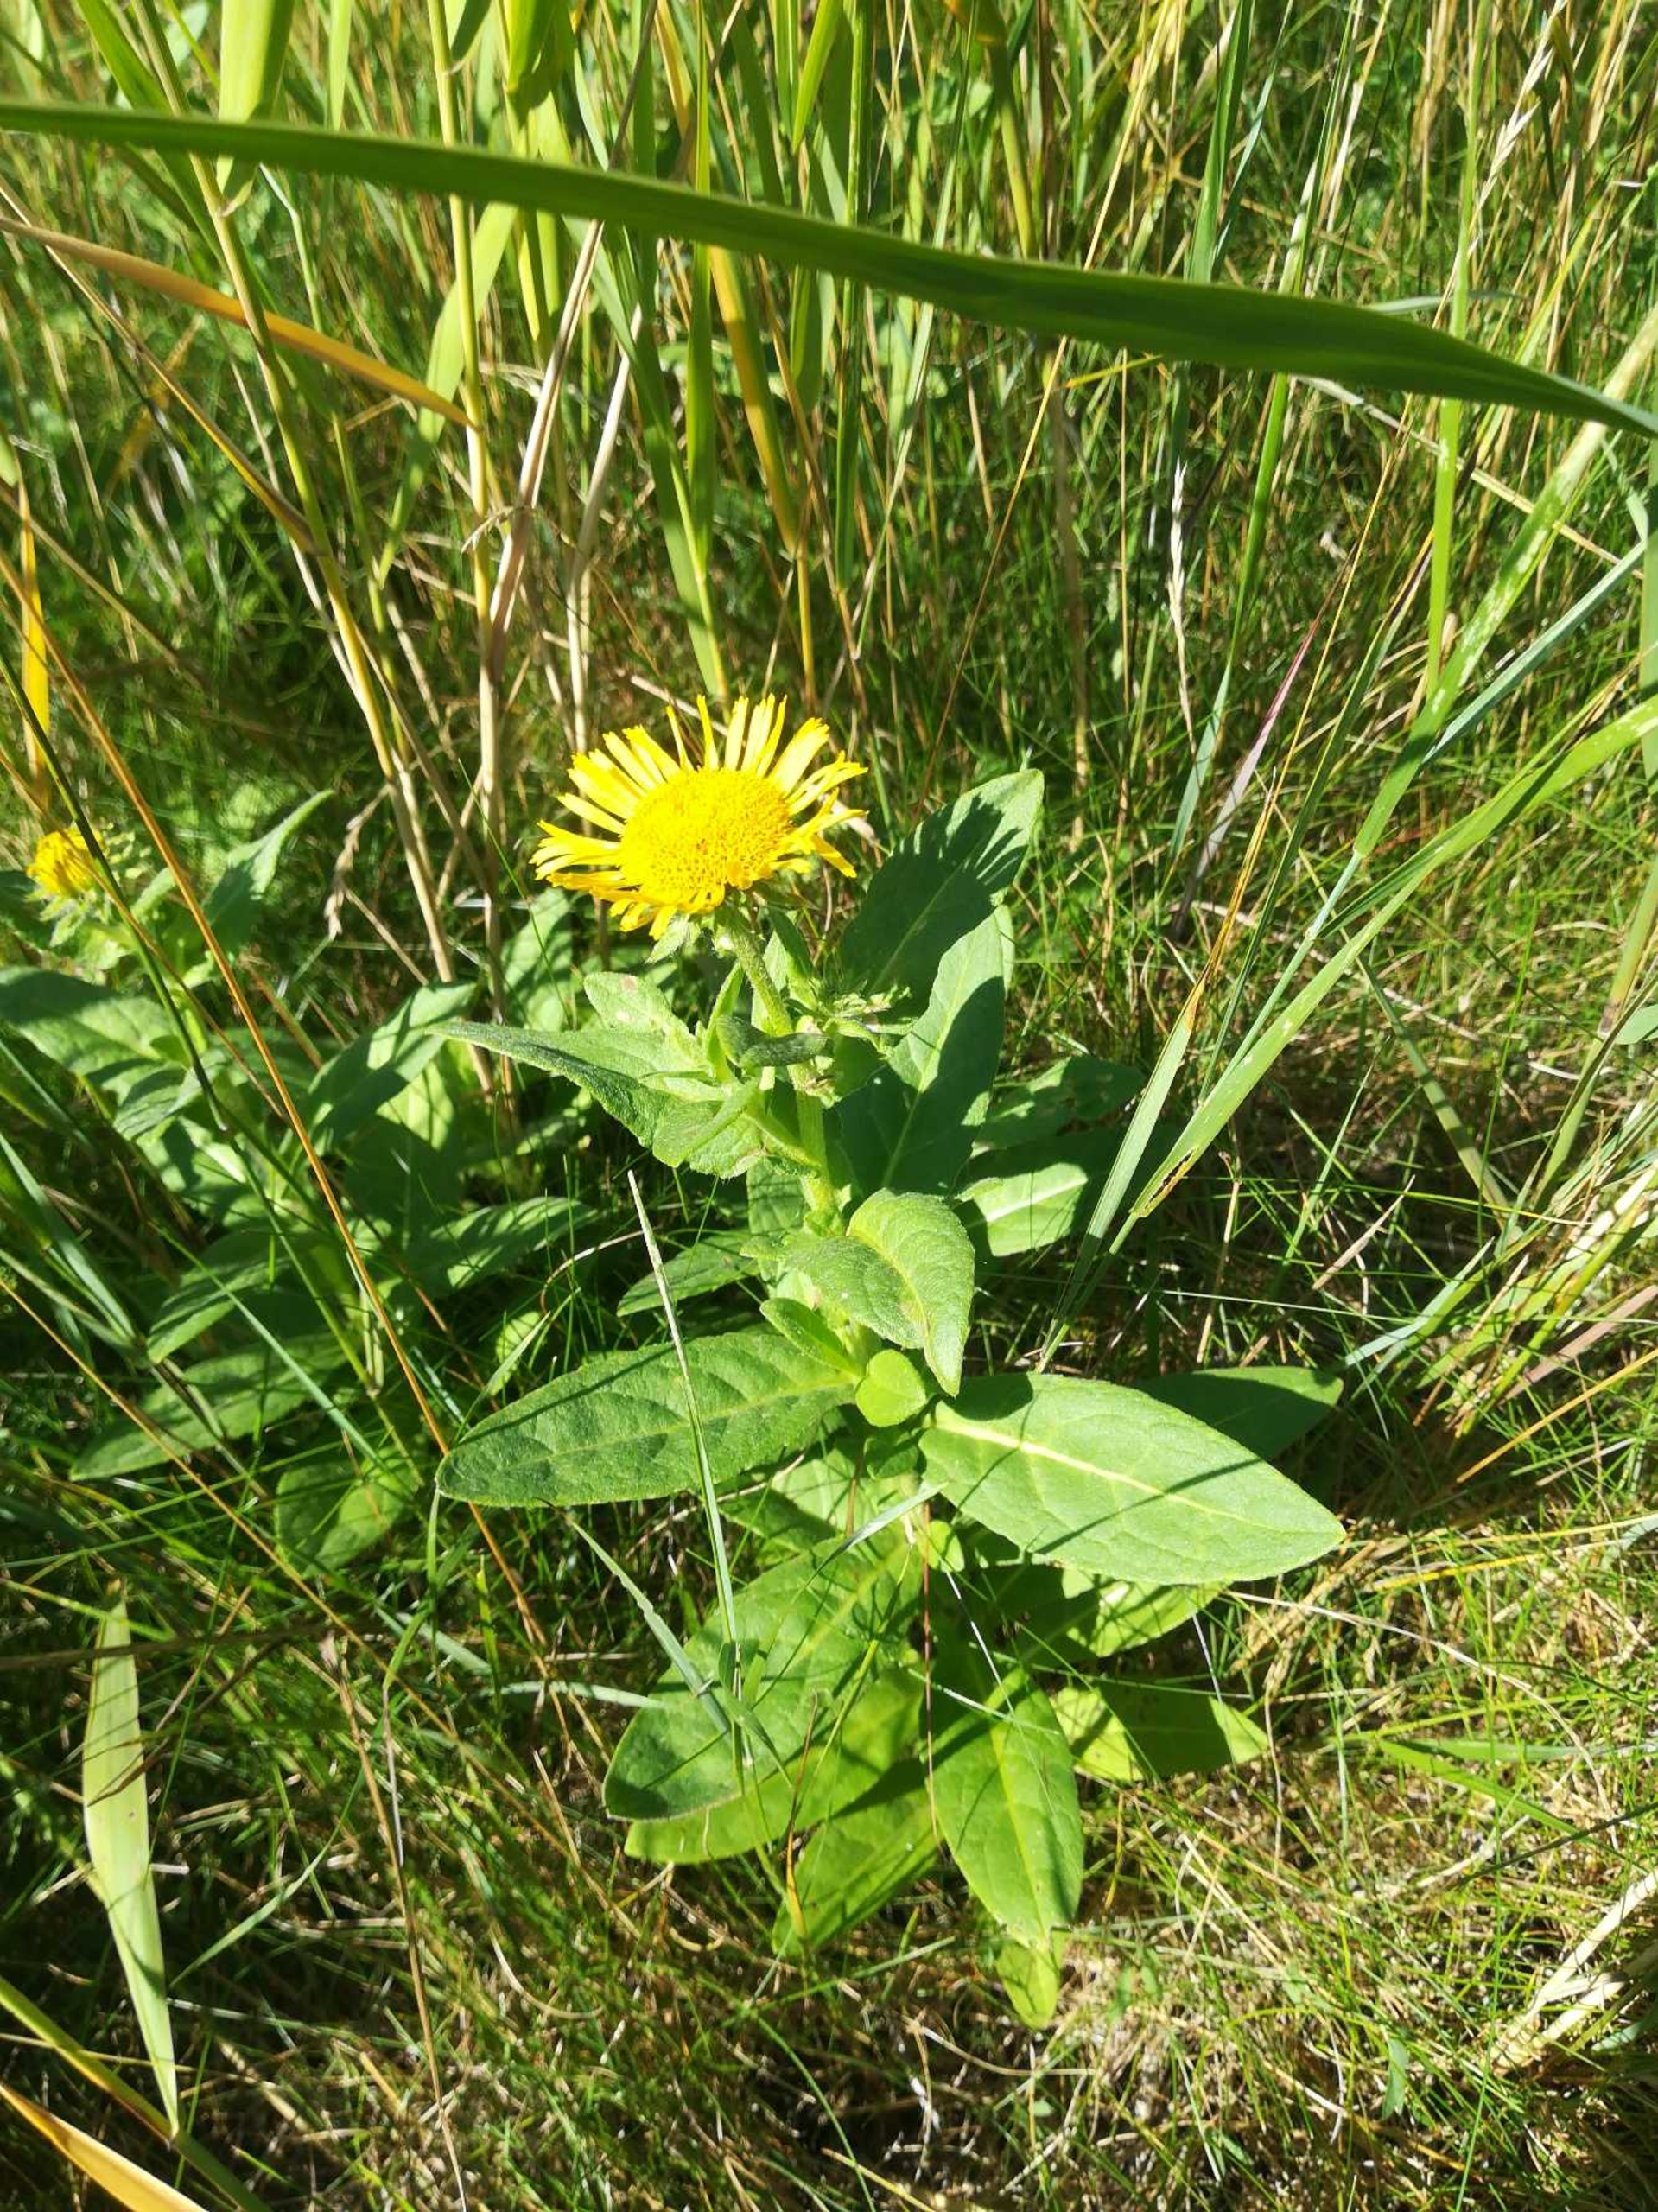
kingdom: Plantae
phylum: Tracheophyta
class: Magnoliopsida
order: Asterales
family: Asteraceae
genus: Pentanema
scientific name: Pentanema britannicum
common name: Soløje-alant
